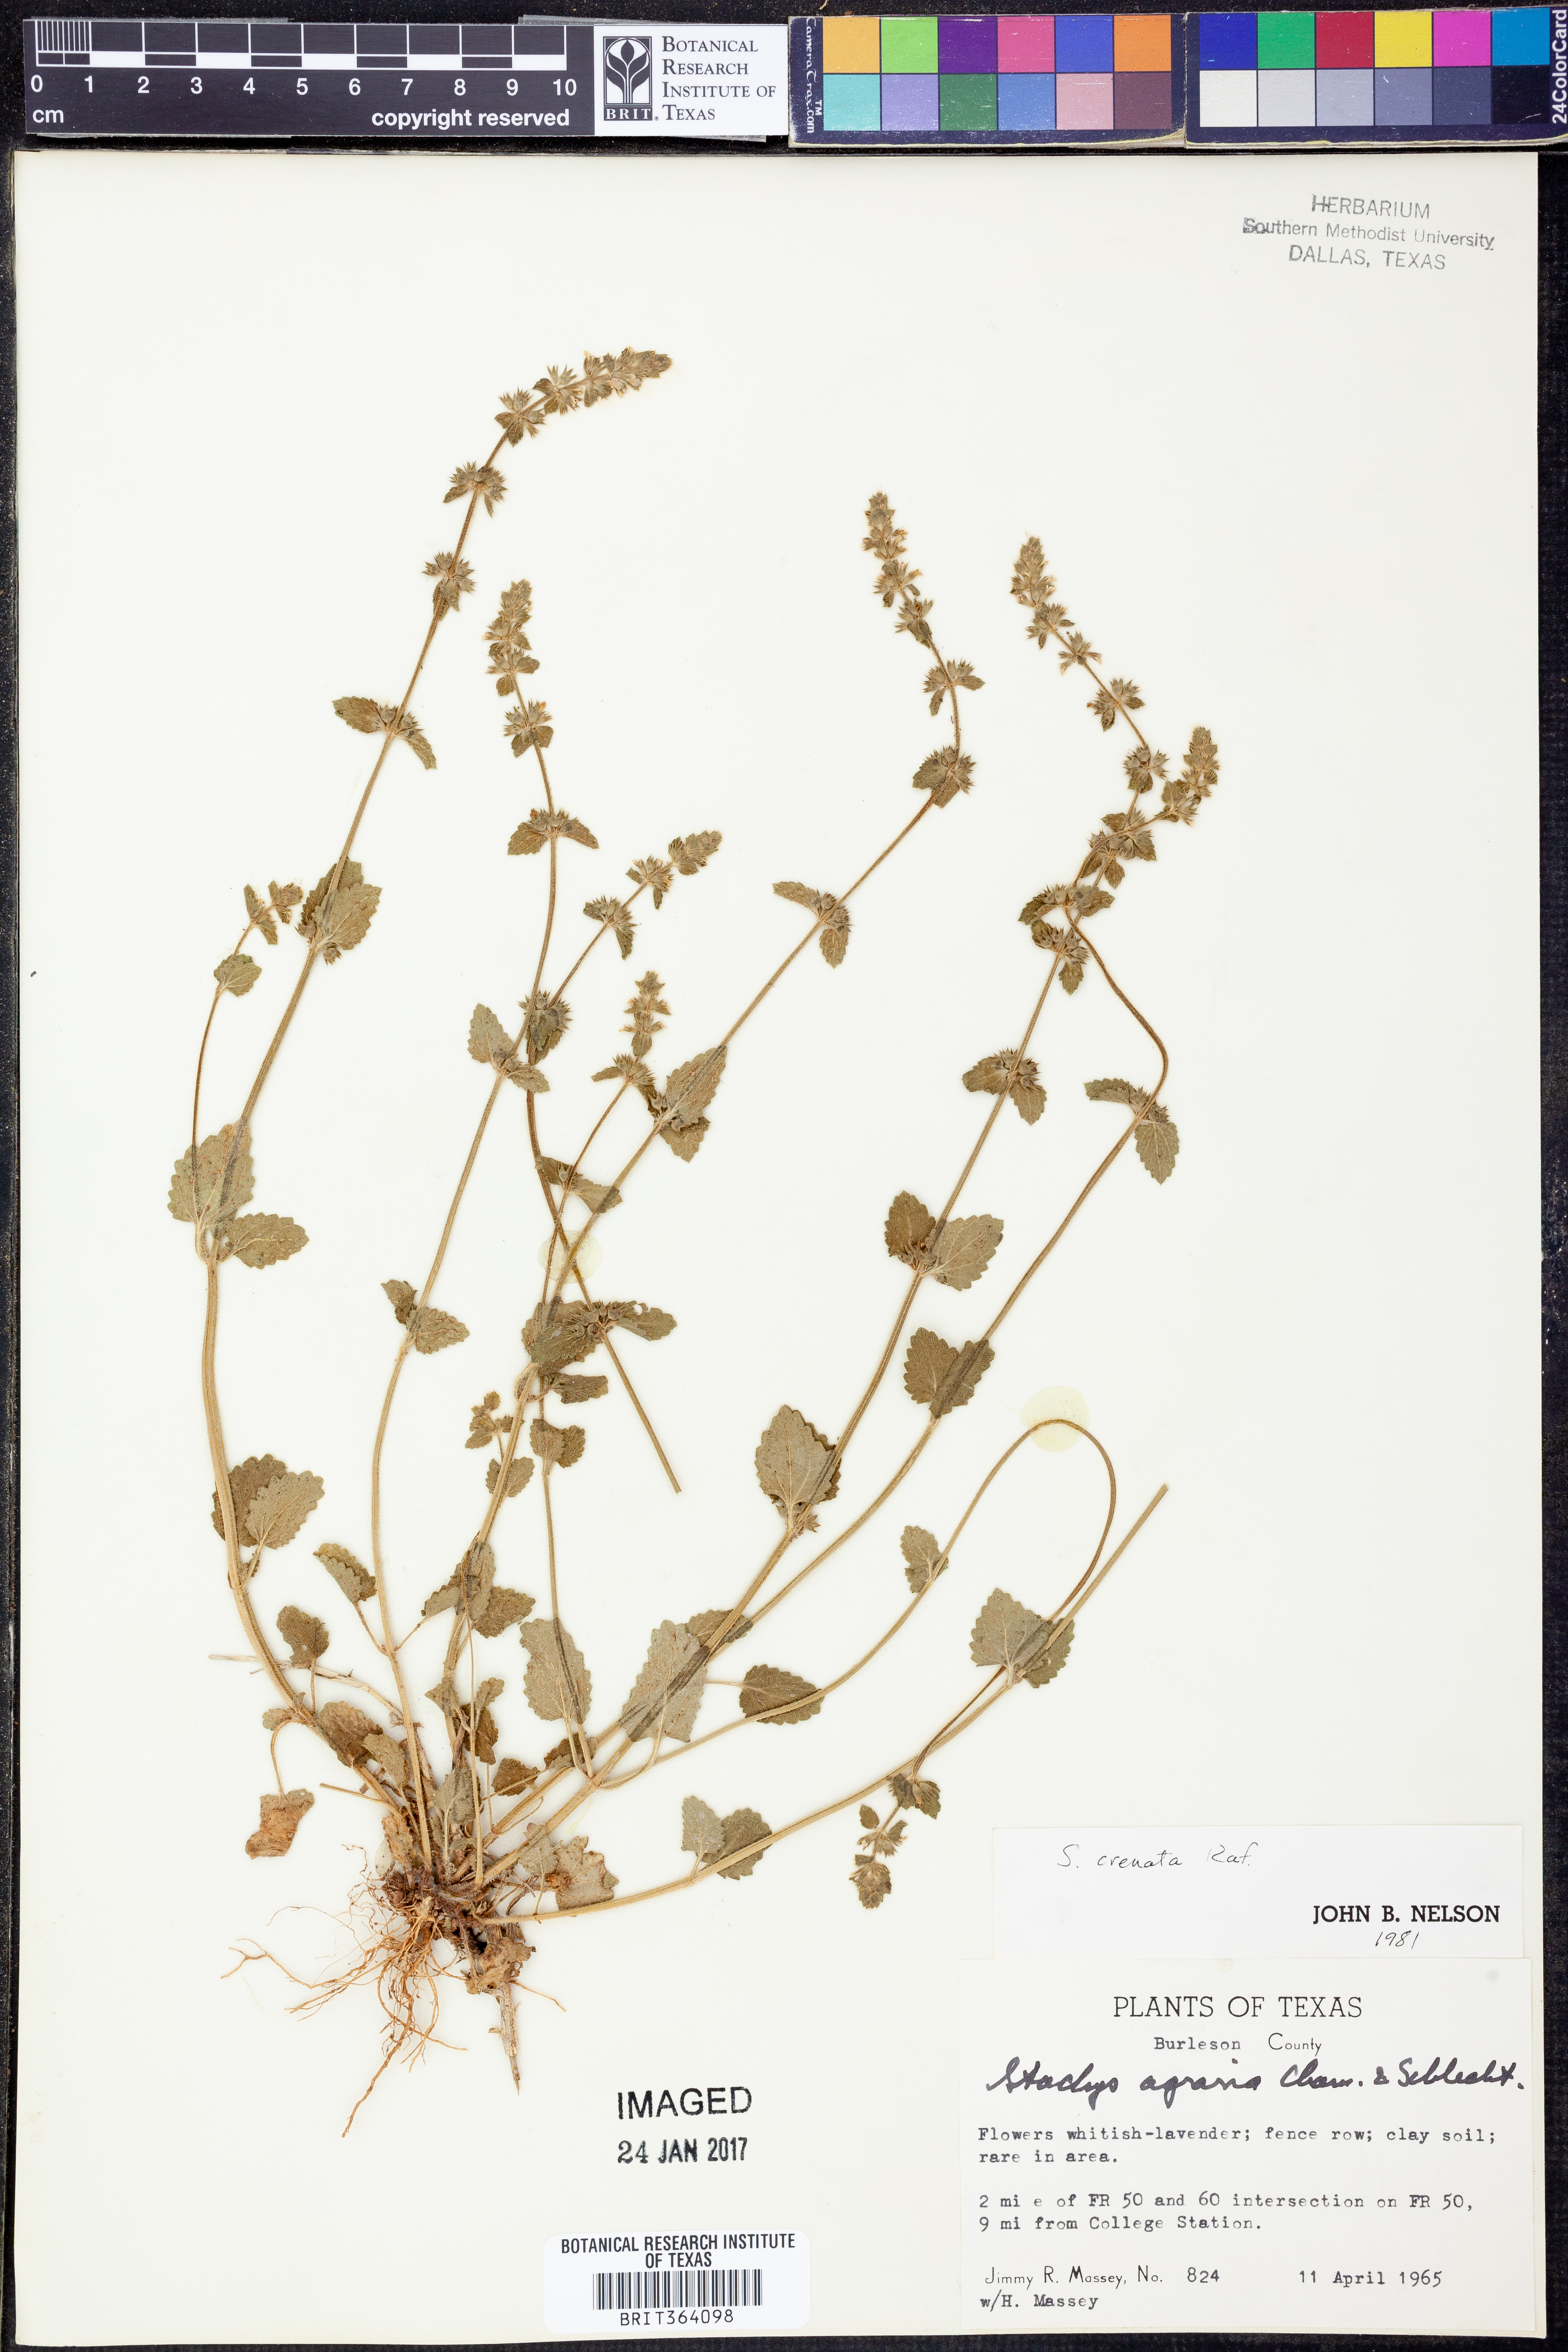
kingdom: Plantae
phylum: Tracheophyta
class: Magnoliopsida
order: Lamiales
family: Lamiaceae
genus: Stachys
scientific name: Stachys agraria
